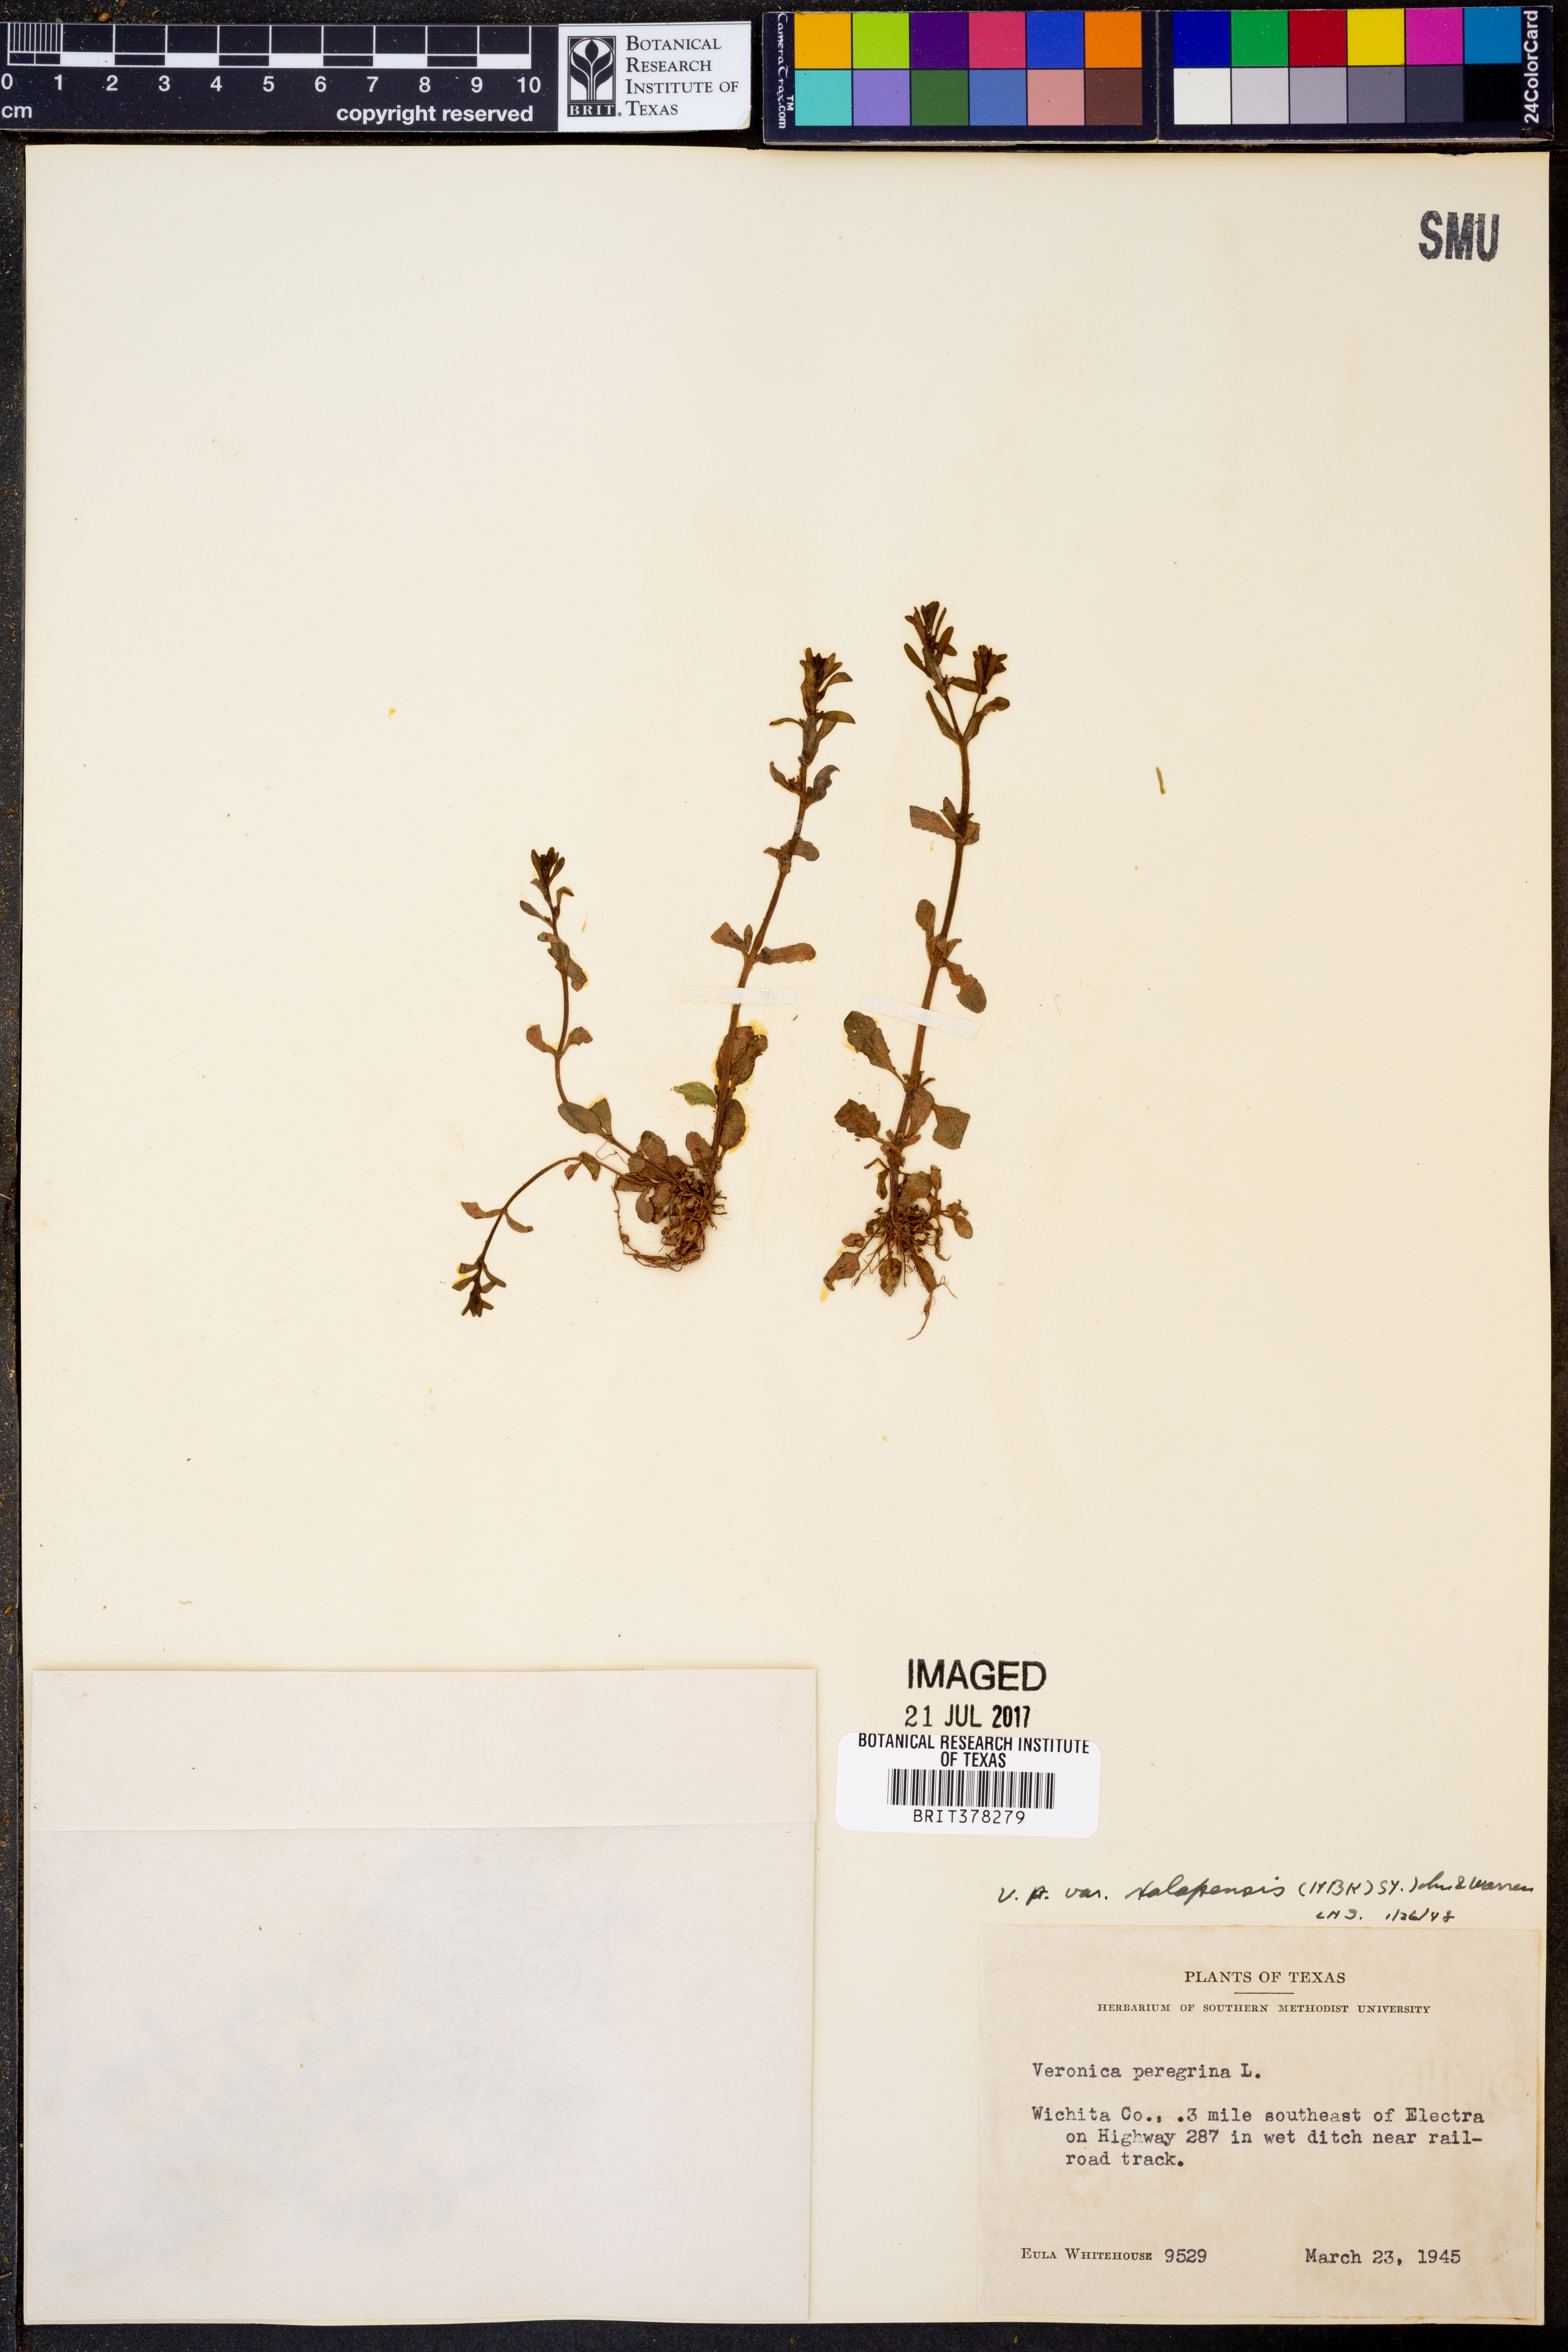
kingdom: Plantae
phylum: Tracheophyta
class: Magnoliopsida
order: Lamiales
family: Plantaginaceae
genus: Veronica
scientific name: Veronica peregrina
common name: Neckweed
